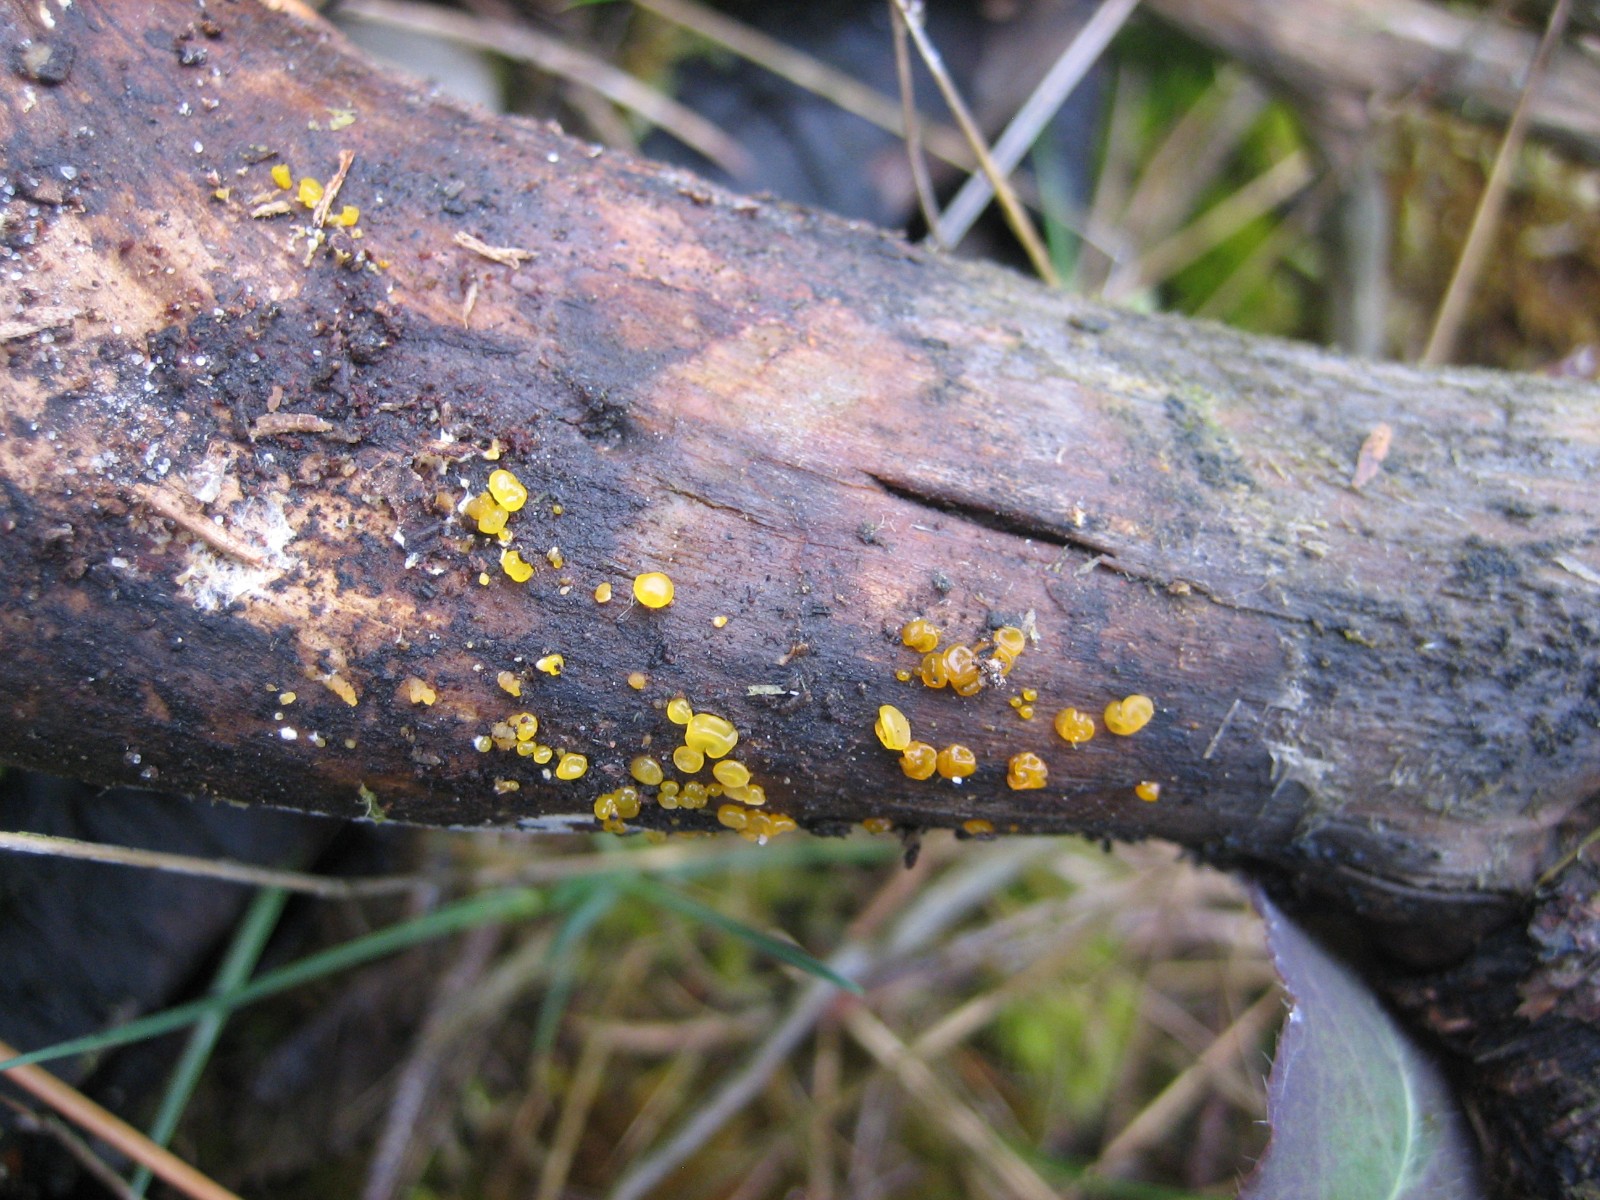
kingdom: Fungi
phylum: Basidiomycota
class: Dacrymycetes
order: Dacrymycetales
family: Dacrymycetaceae
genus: Dacrymyces
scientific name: Dacrymyces
